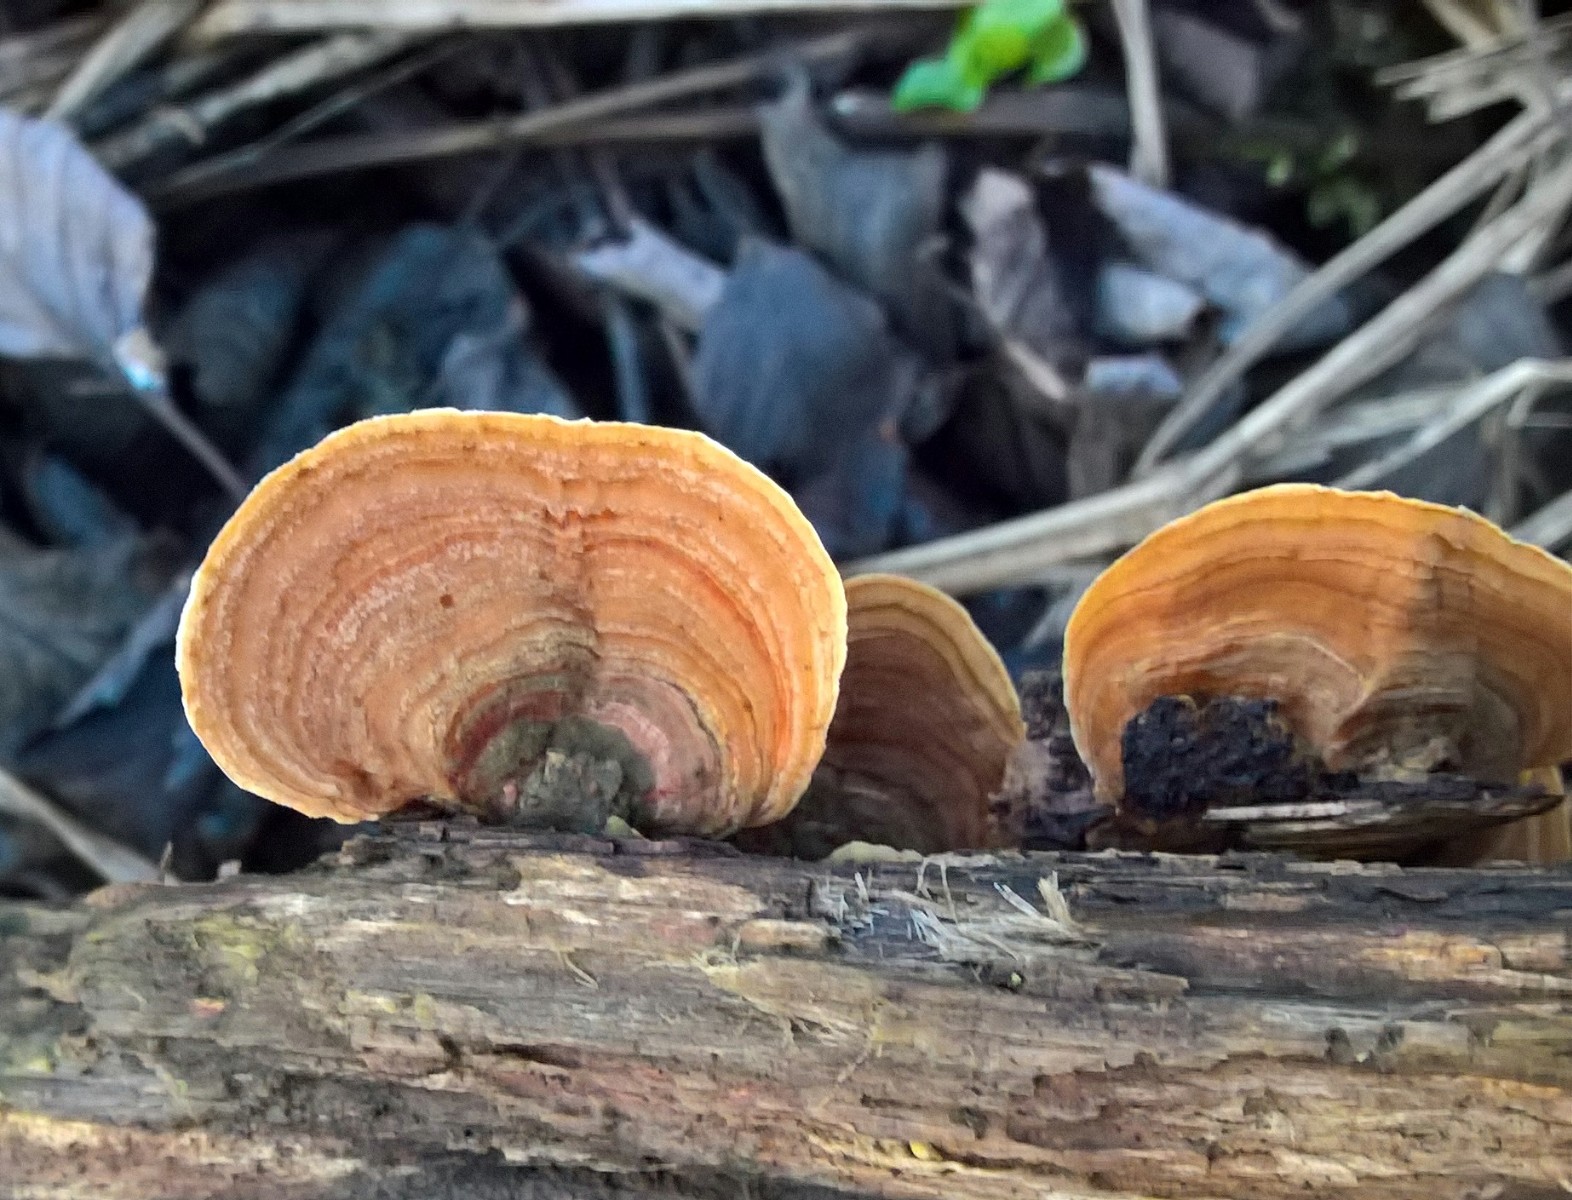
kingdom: Fungi
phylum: Basidiomycota
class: Agaricomycetes
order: Russulales
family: Stereaceae
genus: Stereum
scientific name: Stereum subtomentosum
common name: smuk lædersvamp
